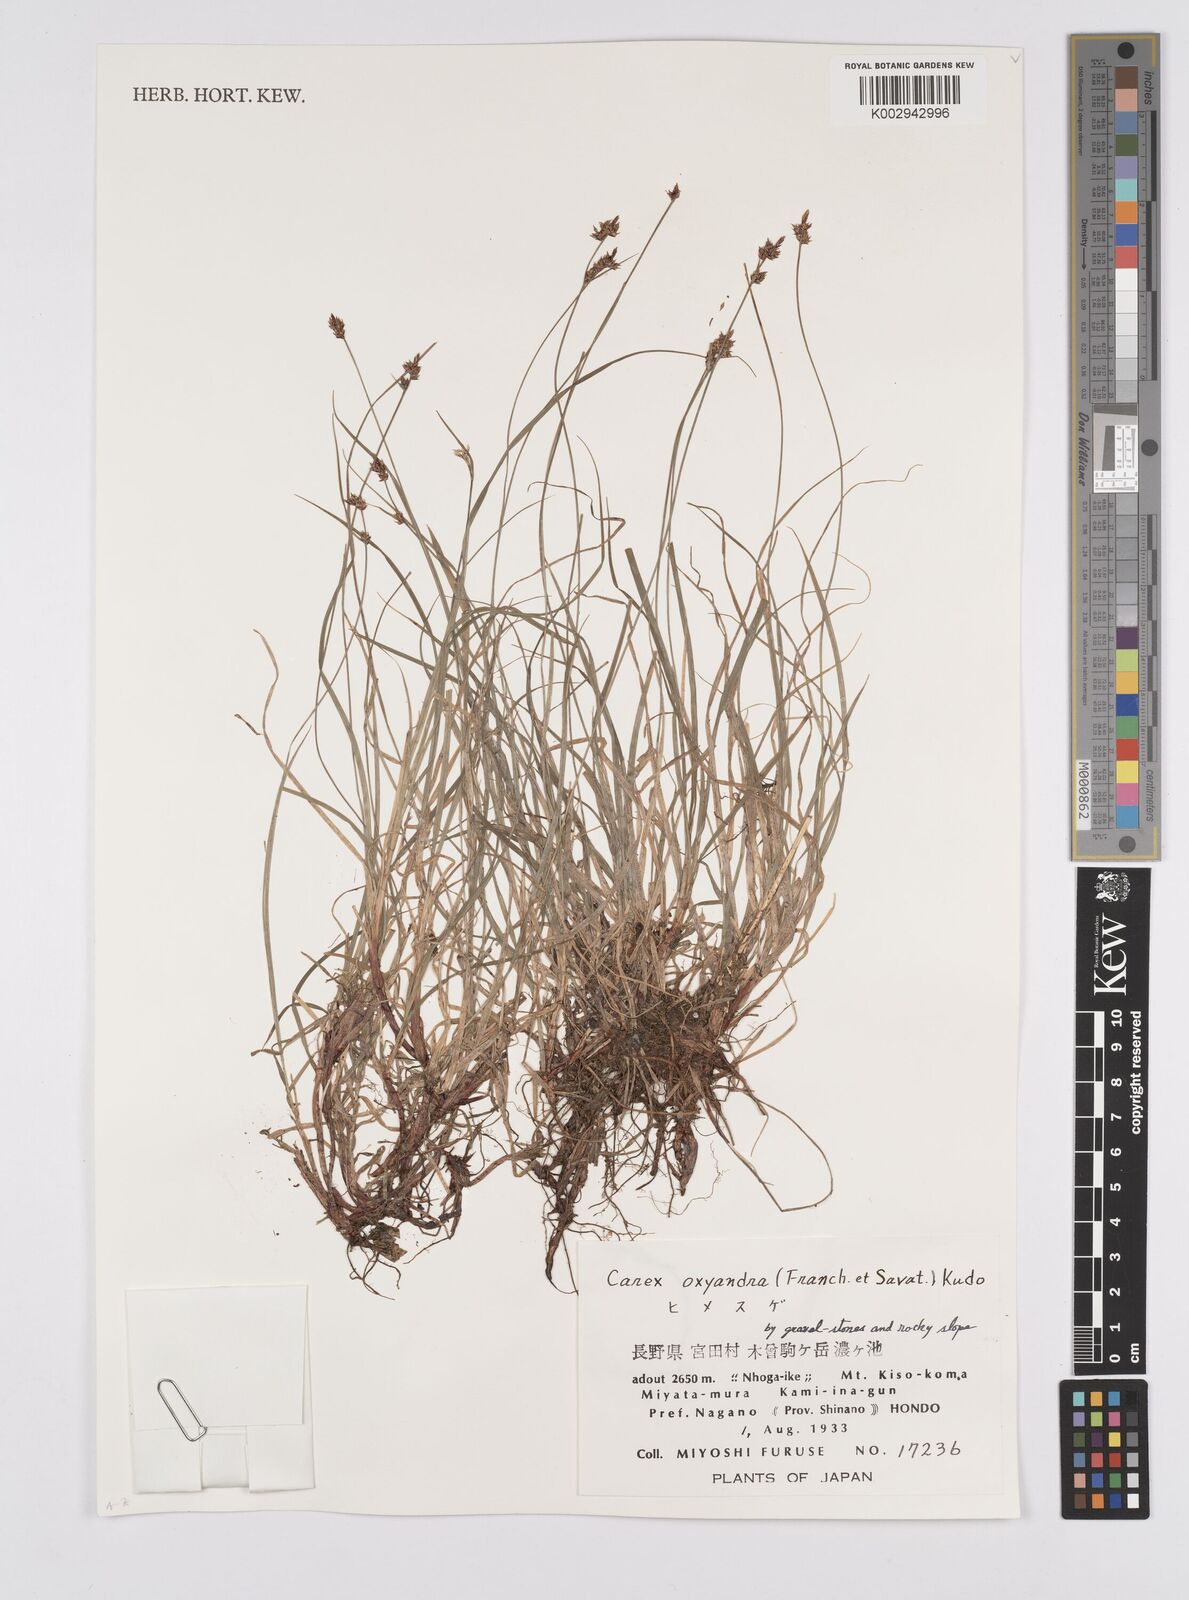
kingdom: Plantae
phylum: Tracheophyta
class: Liliopsida
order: Poales
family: Cyperaceae
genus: Carex
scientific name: Carex oxyandra
